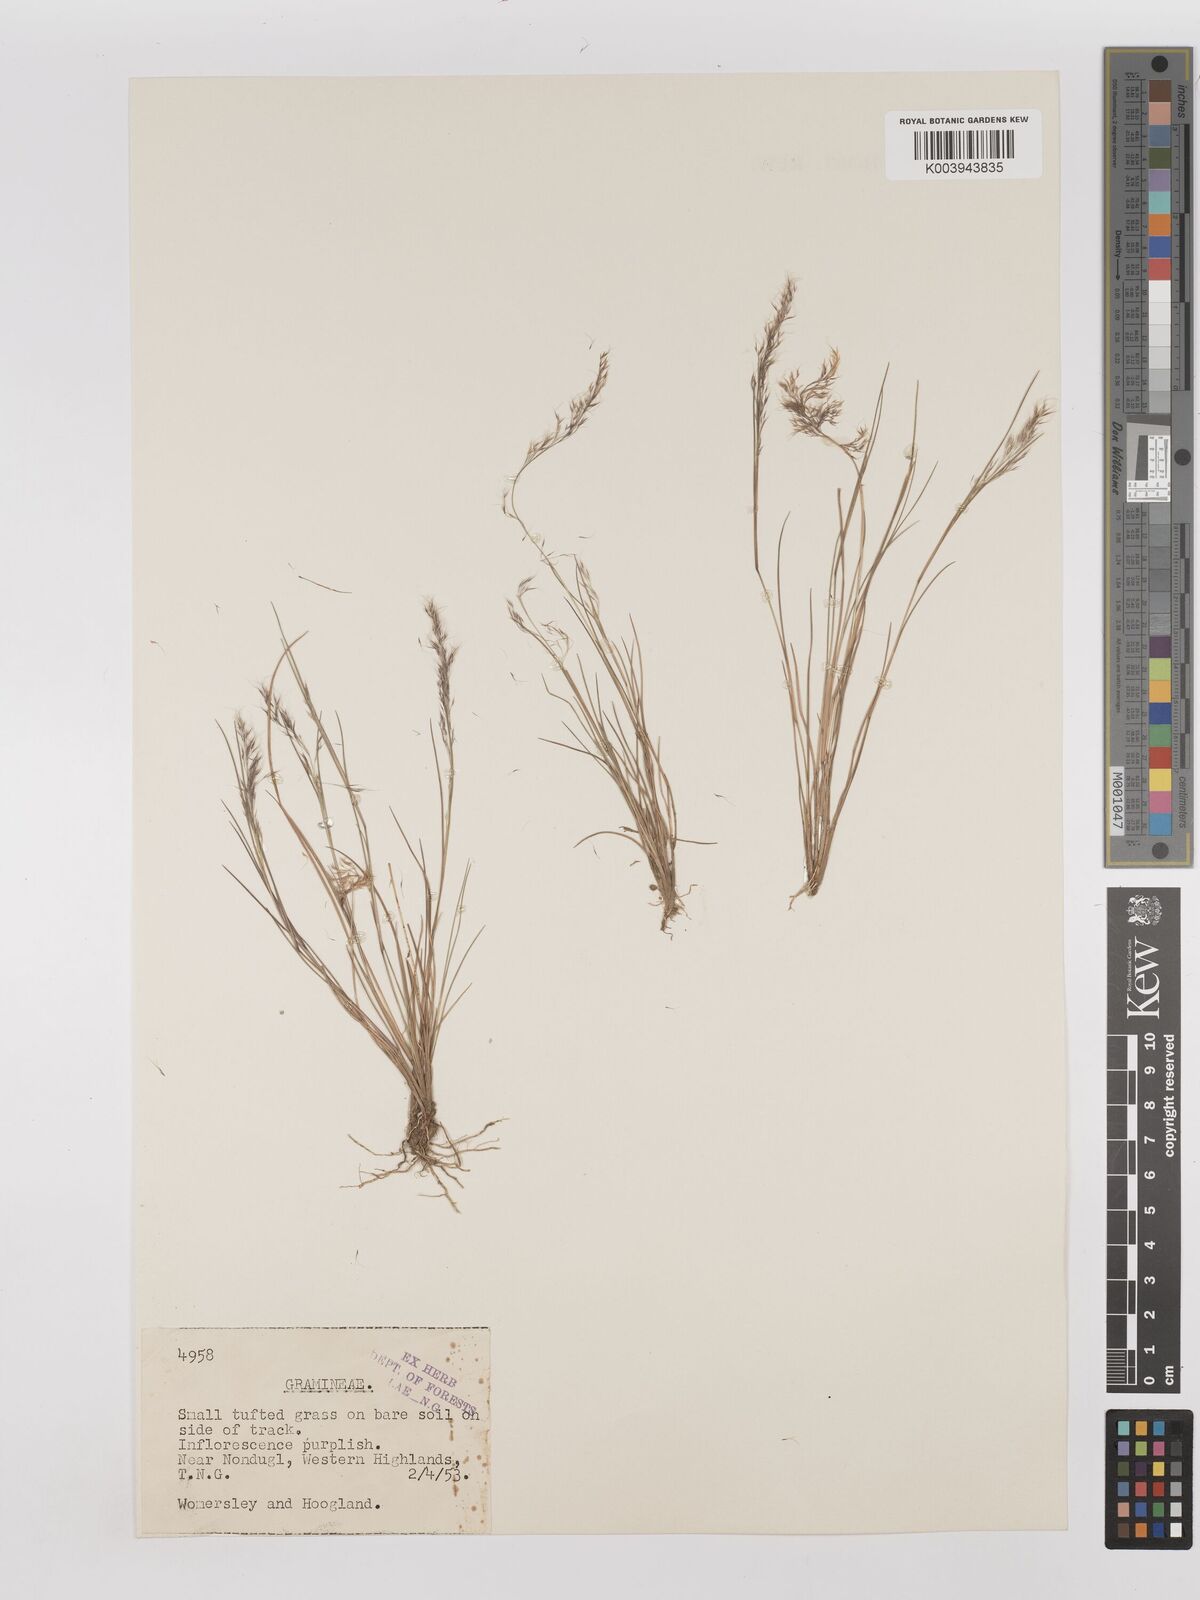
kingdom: Plantae
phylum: Tracheophyta
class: Liliopsida
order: Poales
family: Poaceae
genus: Aristida
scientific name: Aristida cumingiana
